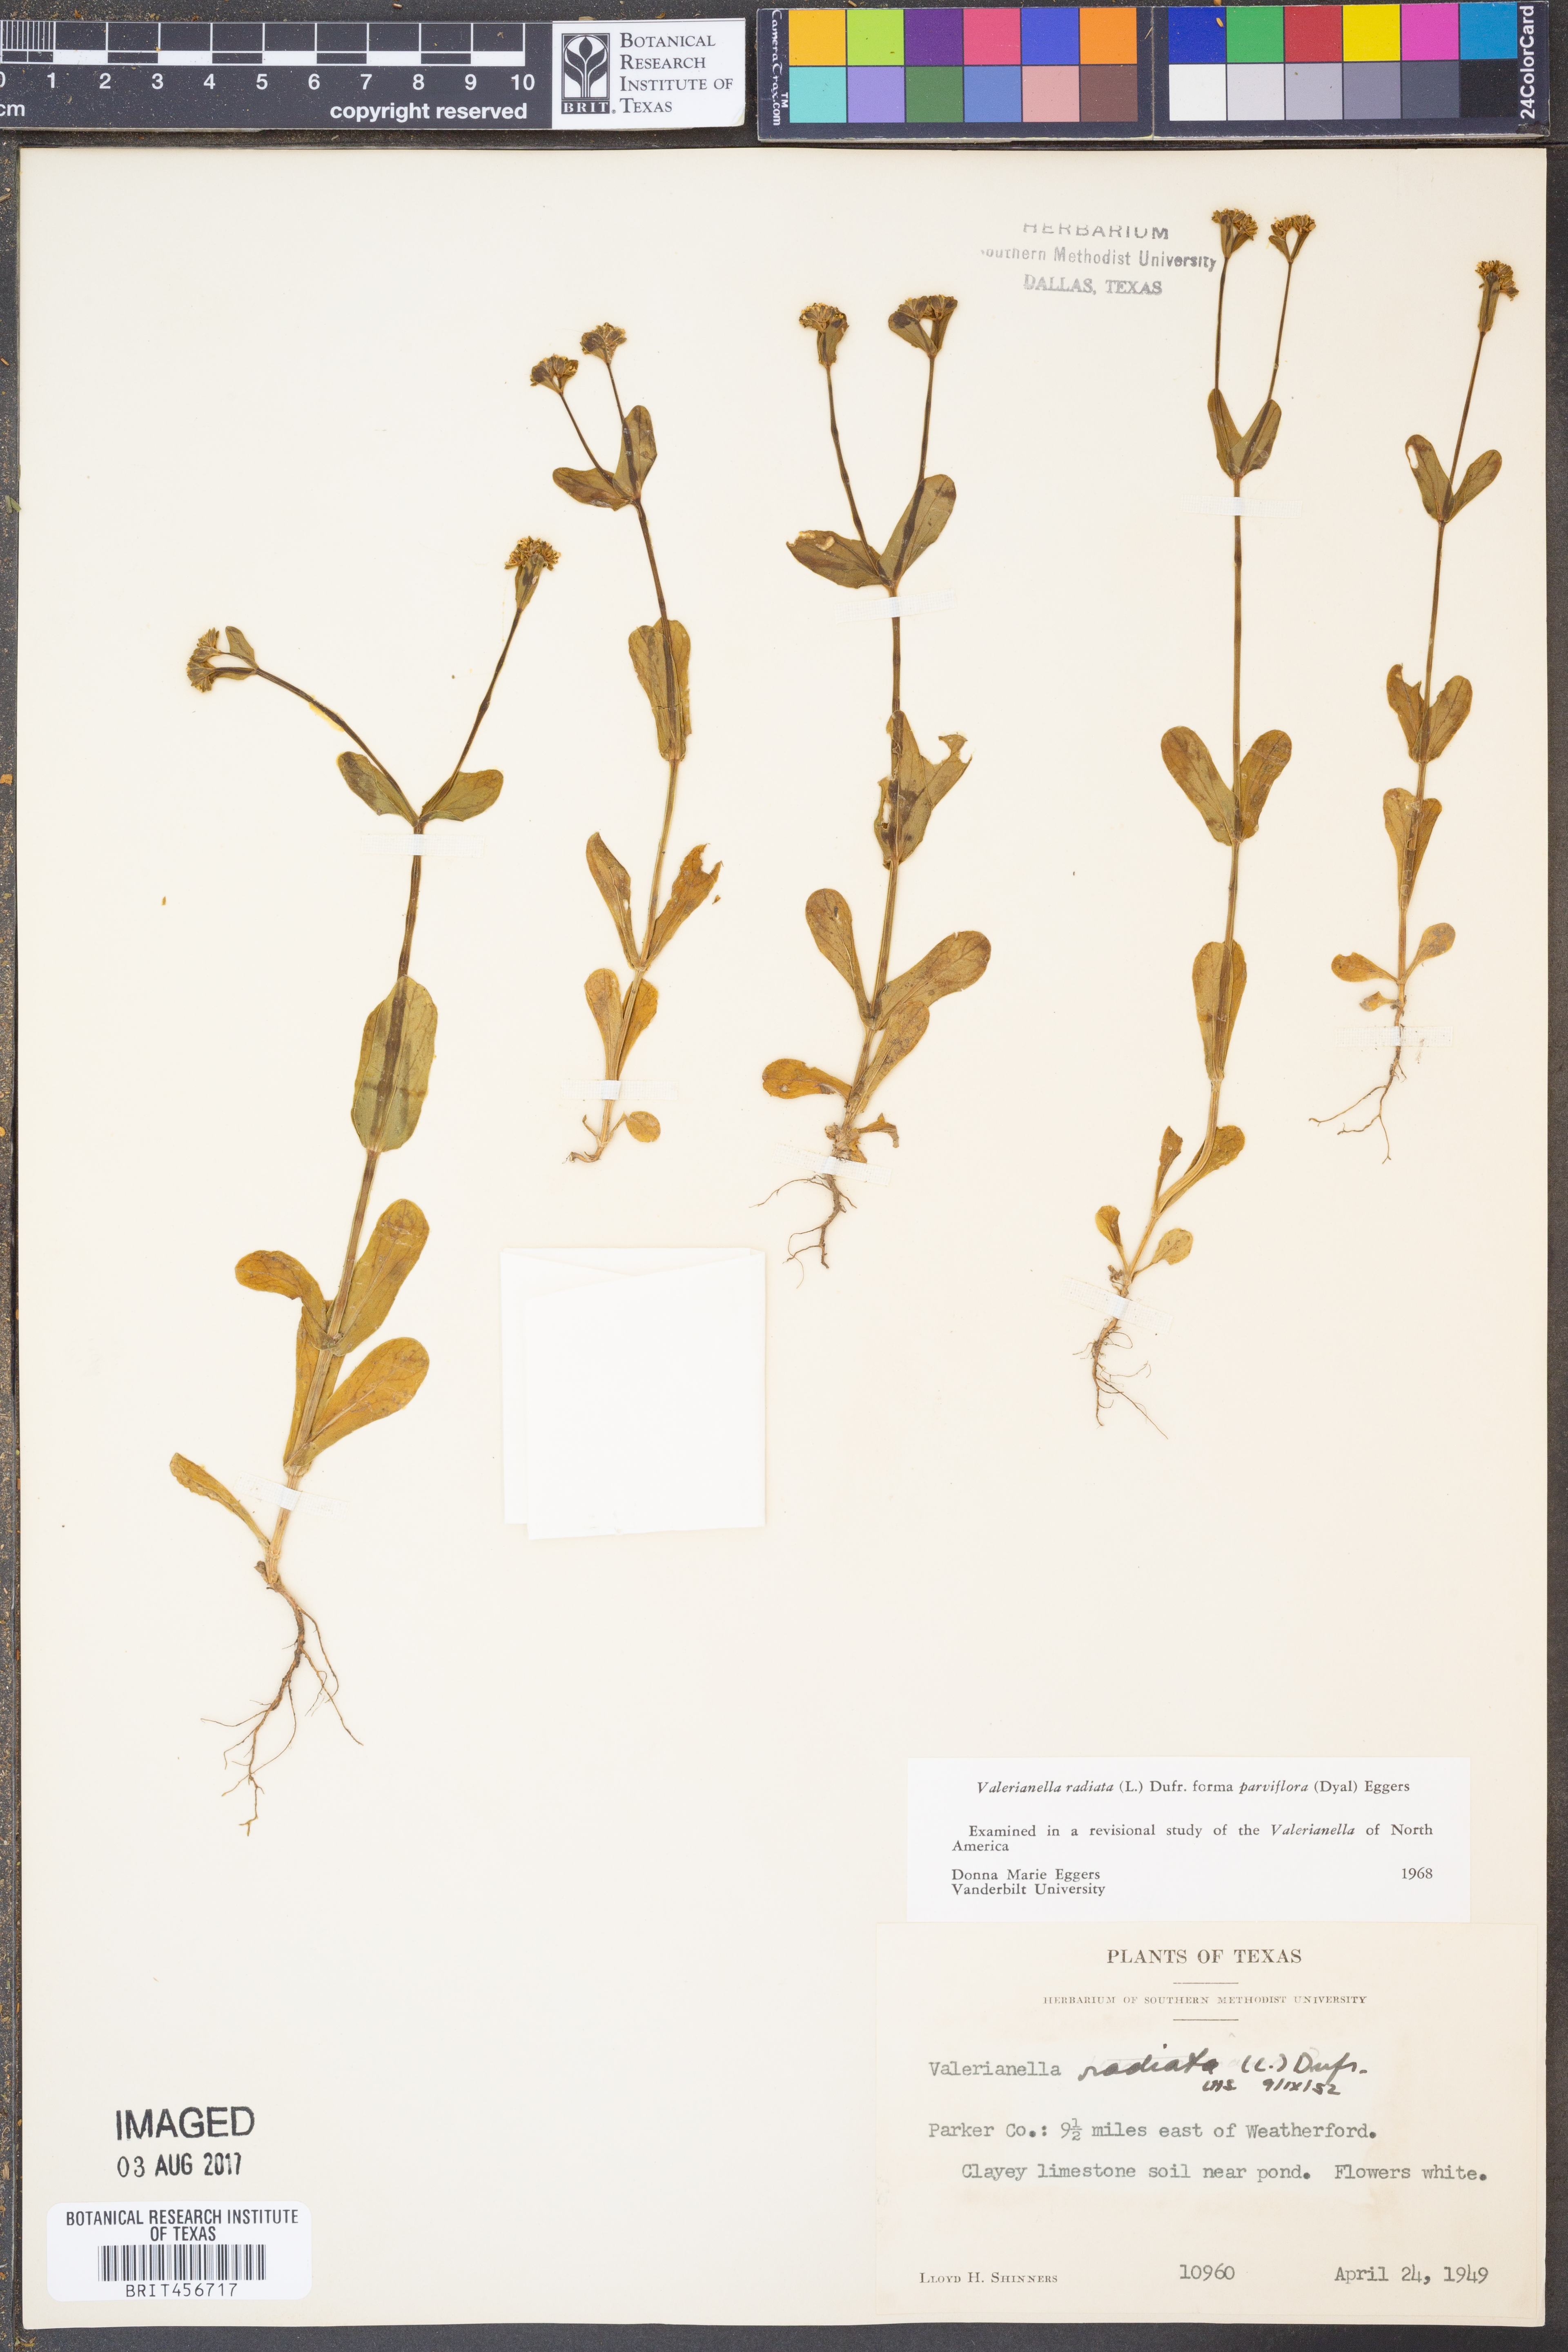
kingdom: Plantae
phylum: Tracheophyta
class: Magnoliopsida
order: Dipsacales
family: Caprifoliaceae
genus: Valerianella
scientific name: Valerianella radiata
